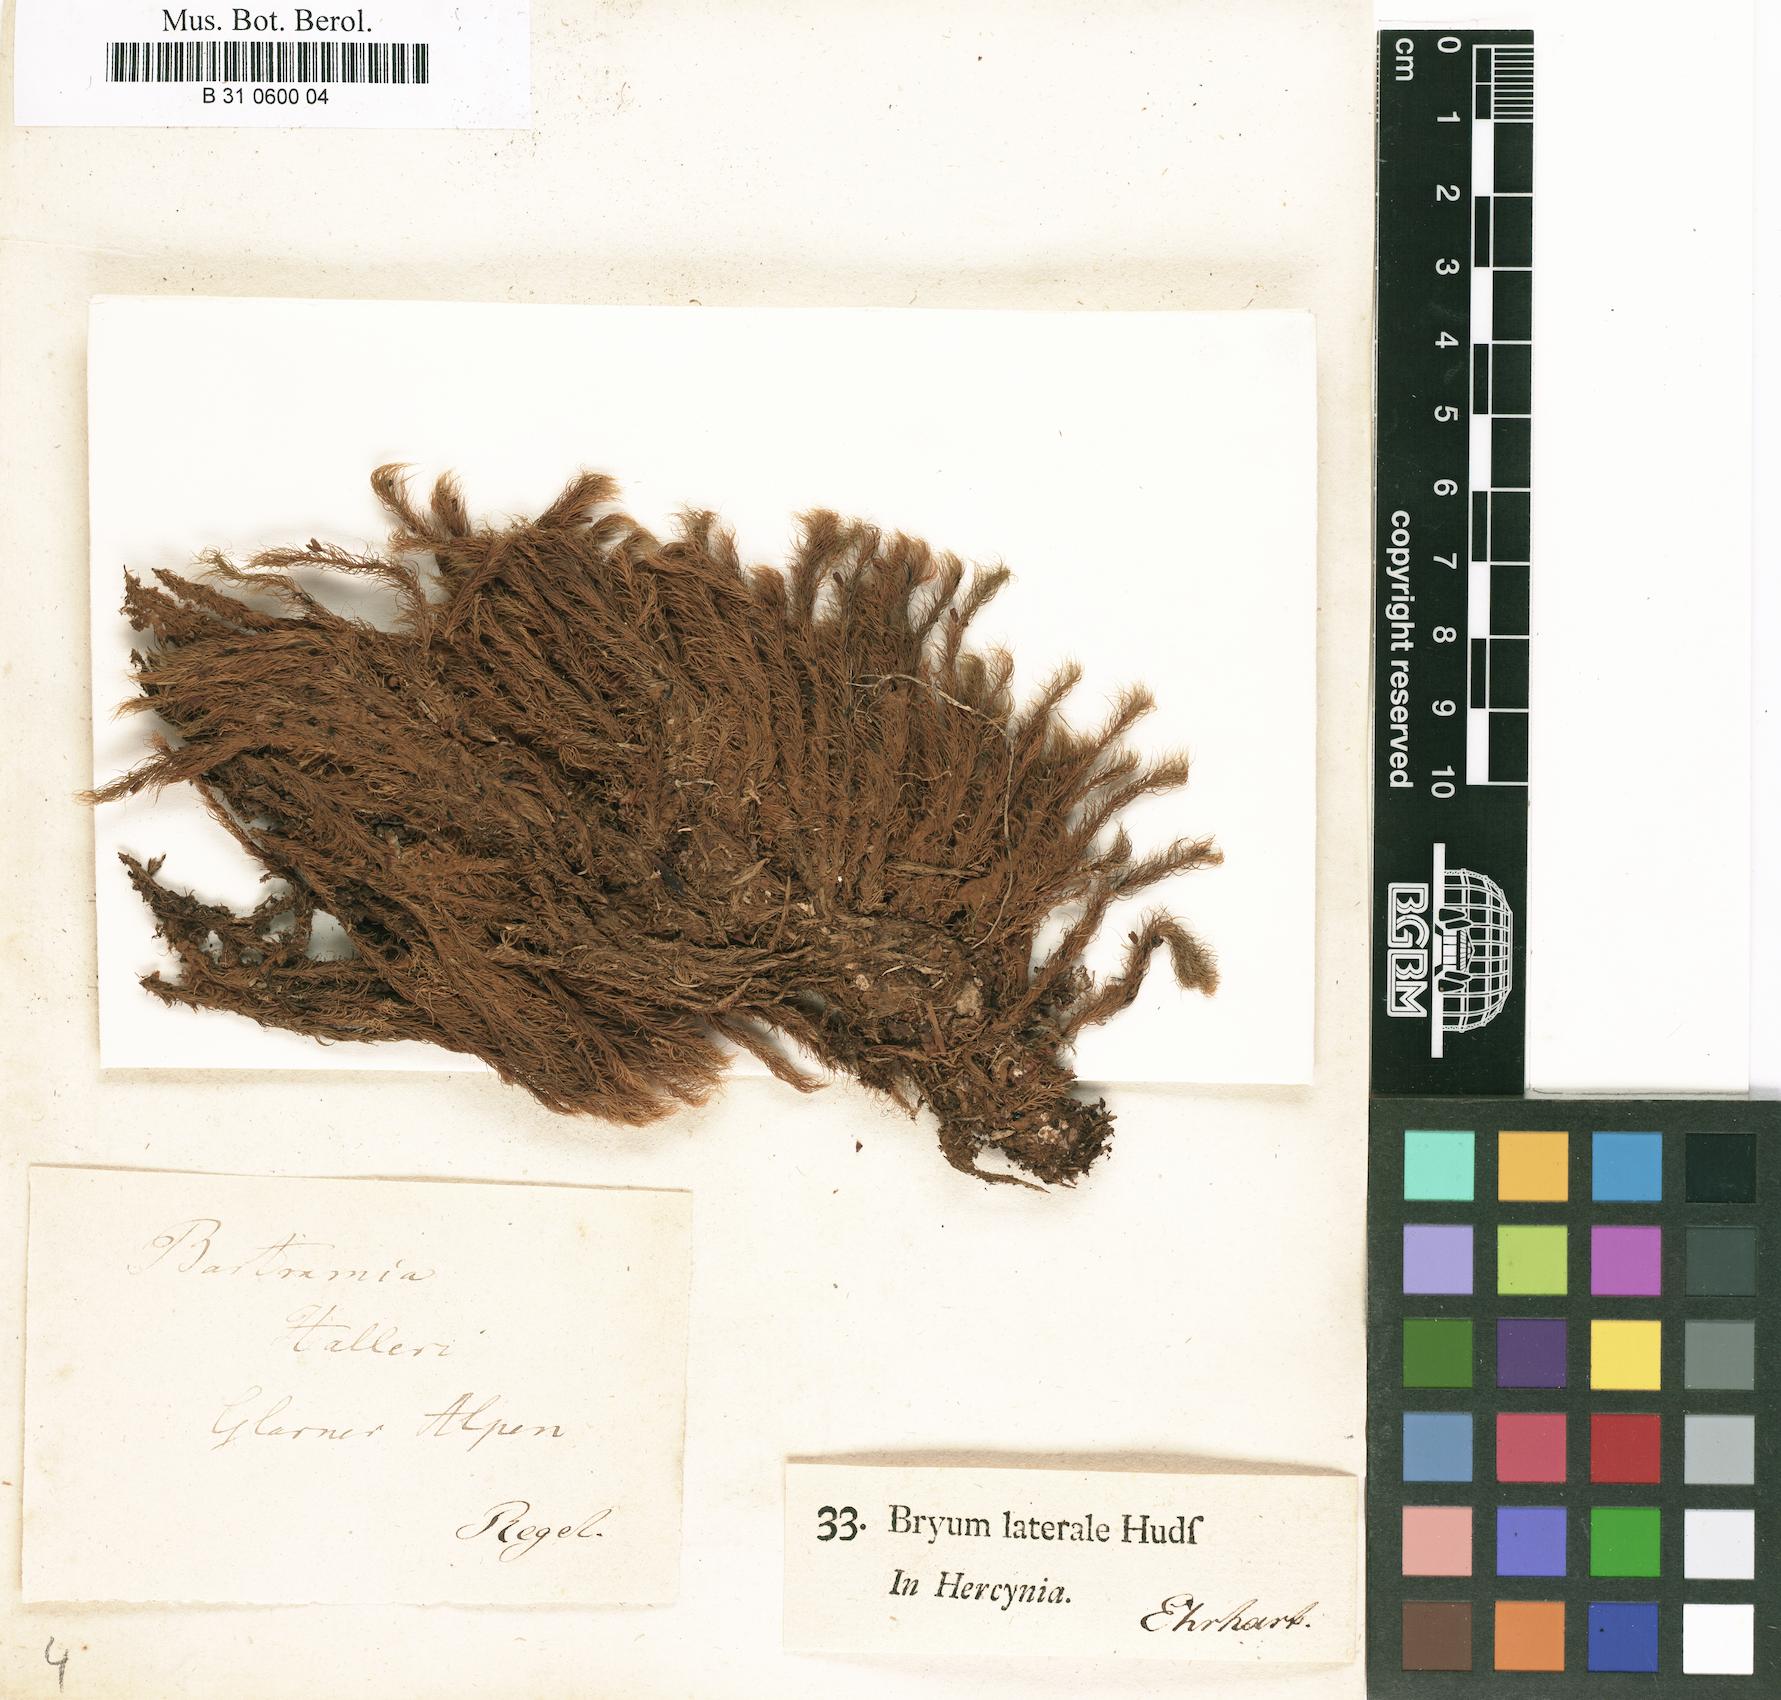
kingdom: Plantae
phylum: Bryophyta
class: Bryopsida
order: Bartramiales
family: Bartramiaceae
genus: Bartramia
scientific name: Bartramia halleriana
